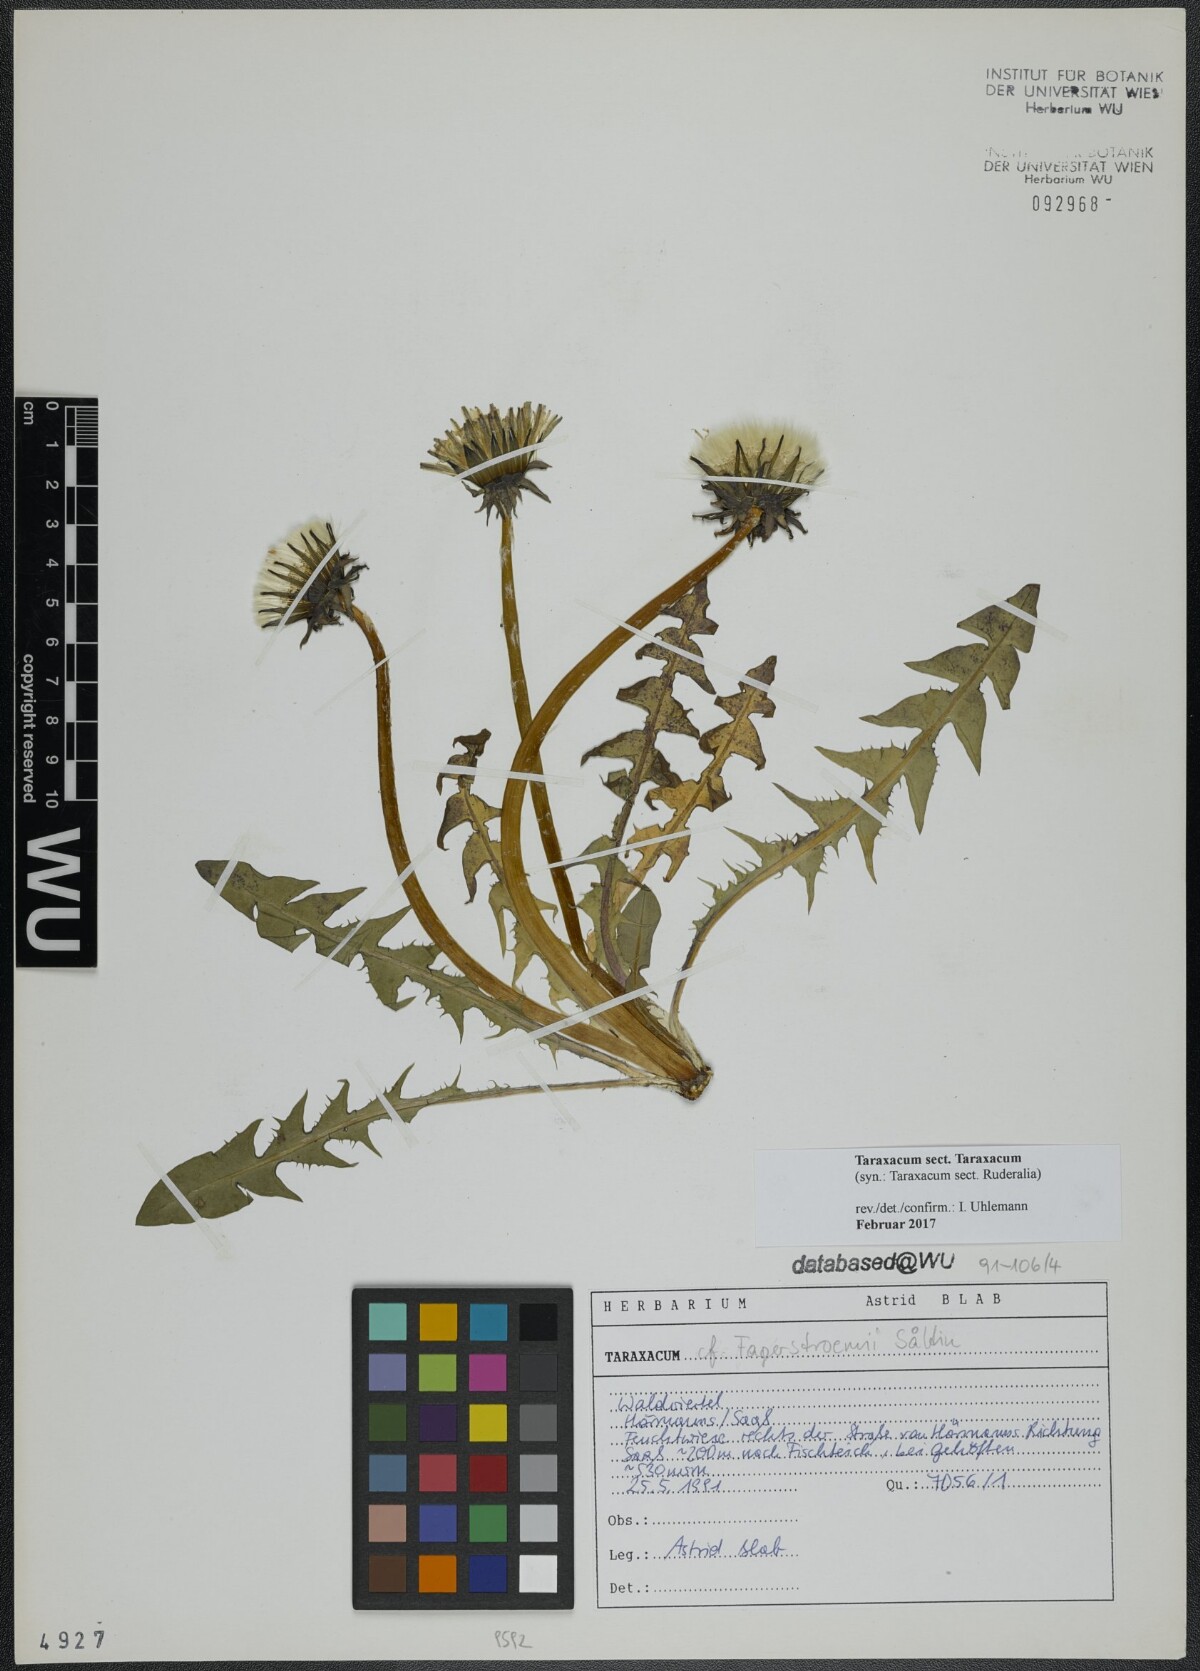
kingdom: Plantae
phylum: Tracheophyta
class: Magnoliopsida
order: Asterales
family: Asteraceae
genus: Taraxacum
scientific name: Taraxacum
